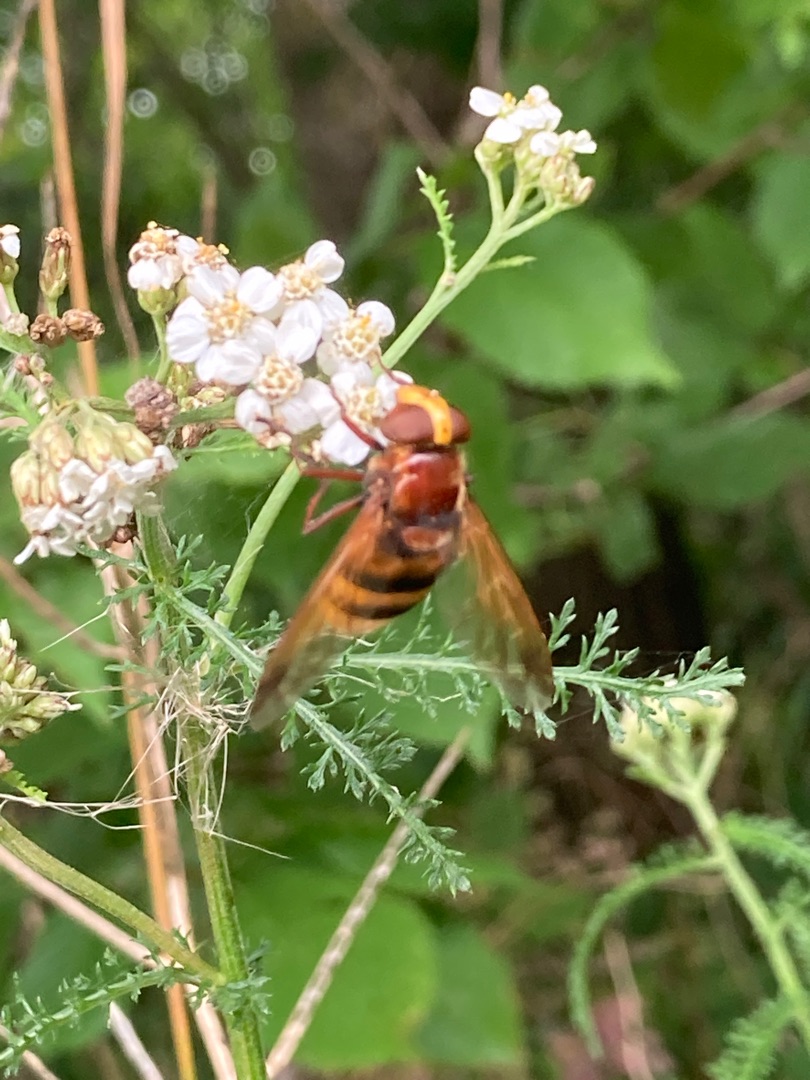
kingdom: Animalia
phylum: Arthropoda
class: Insecta
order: Diptera
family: Syrphidae
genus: Volucella
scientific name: Volucella zonaria
